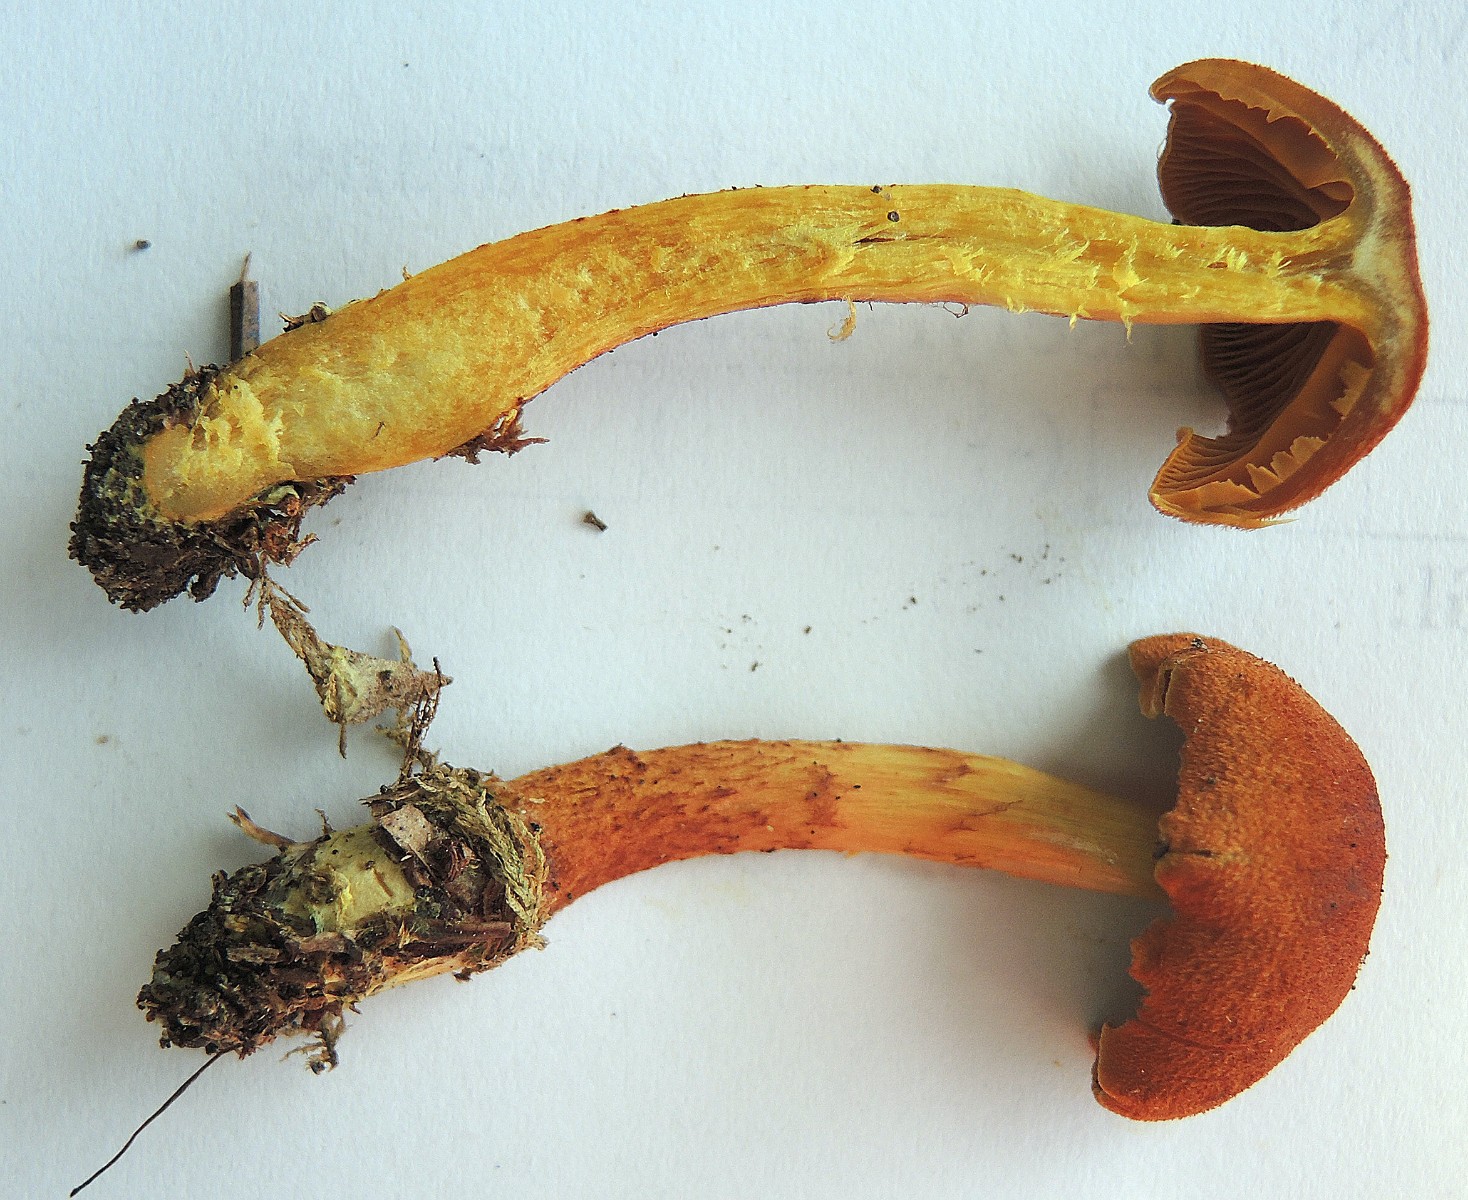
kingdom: Fungi
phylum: Basidiomycota
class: Agaricomycetes
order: Agaricales
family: Cortinariaceae
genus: Cortinarius
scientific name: Cortinarius cinnamomeus
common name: kanel-slørhat
